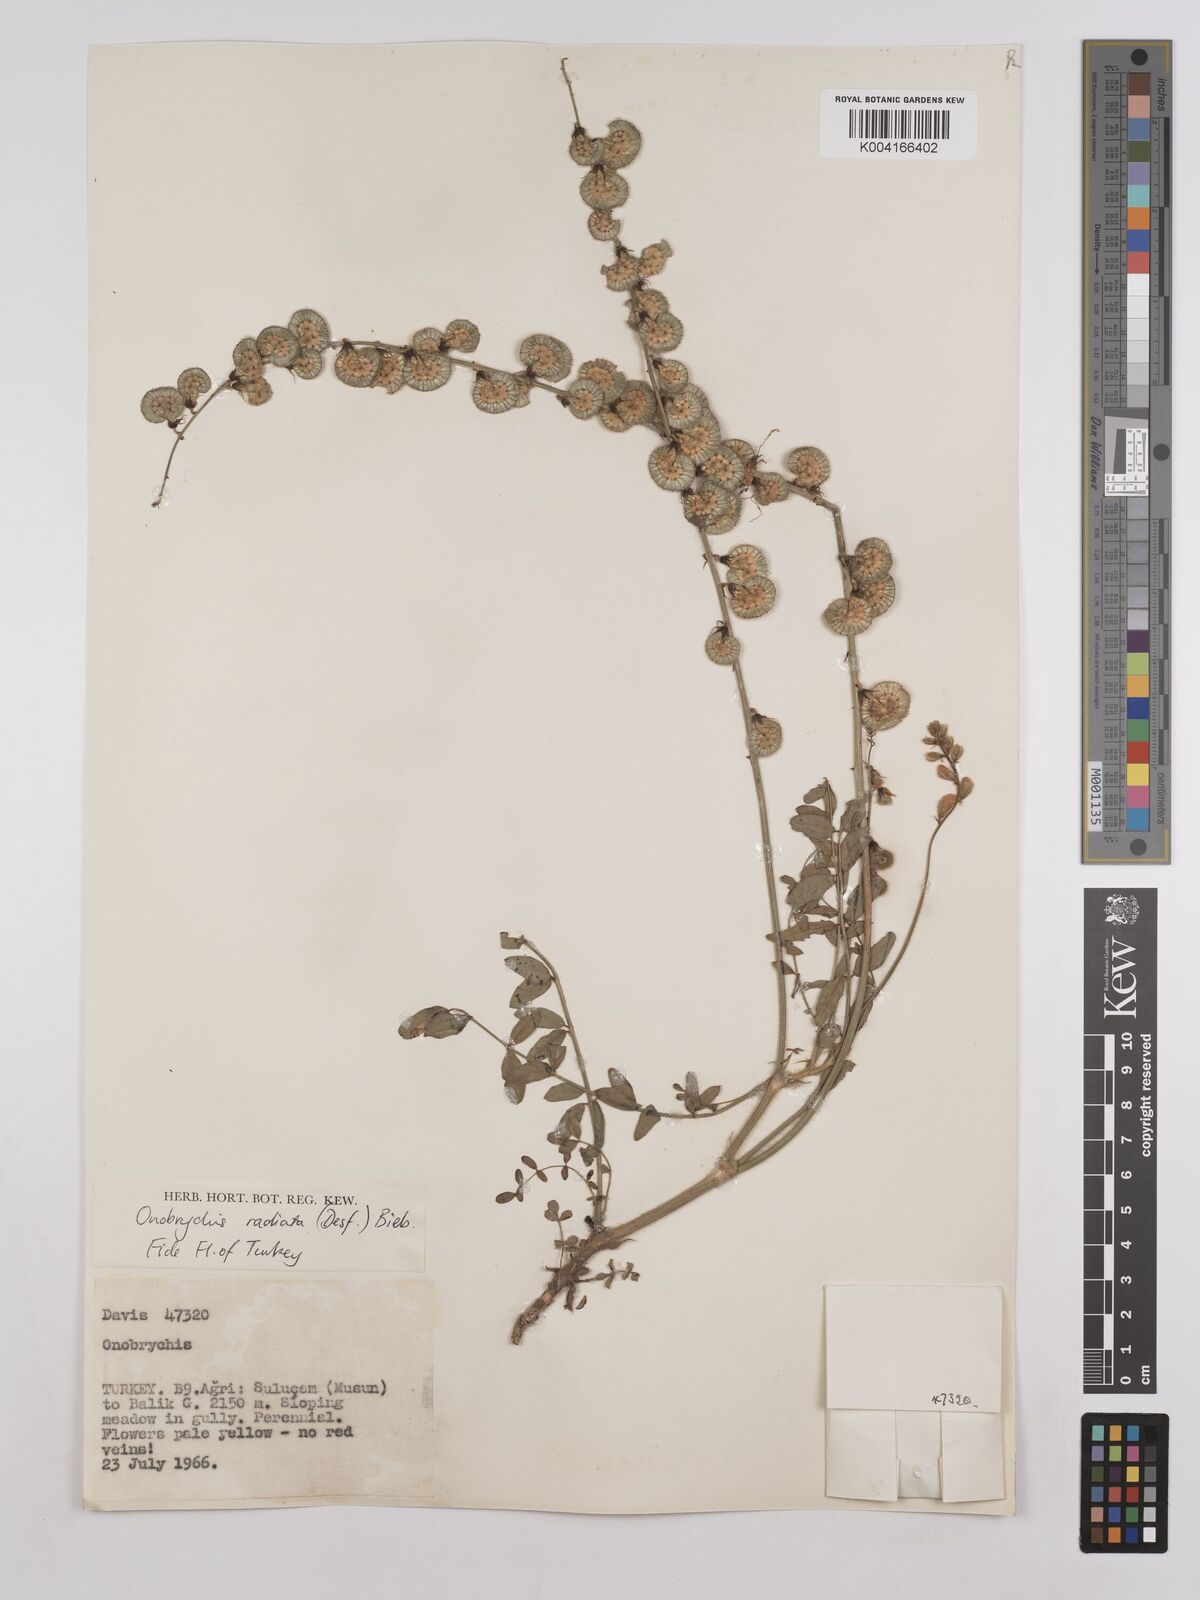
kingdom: Plantae
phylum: Tracheophyta
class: Magnoliopsida
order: Fabales
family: Fabaceae
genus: Onobrychis
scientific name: Onobrychis
